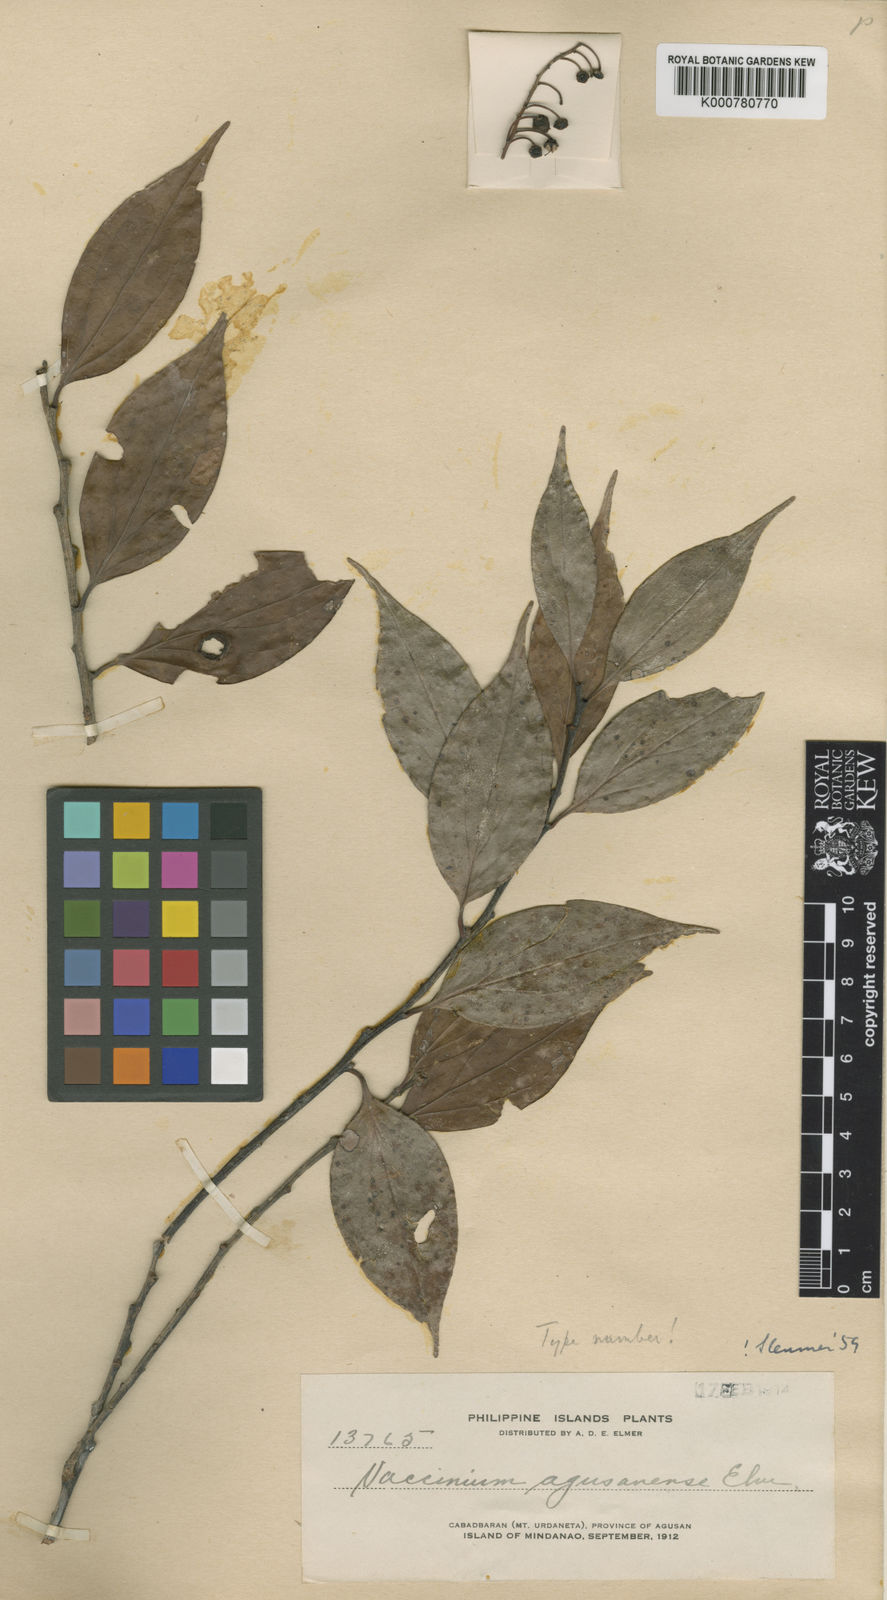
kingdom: Plantae
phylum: Tracheophyta
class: Magnoliopsida
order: Ericales
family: Ericaceae
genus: Vaccinium
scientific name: Vaccinium agusanense
